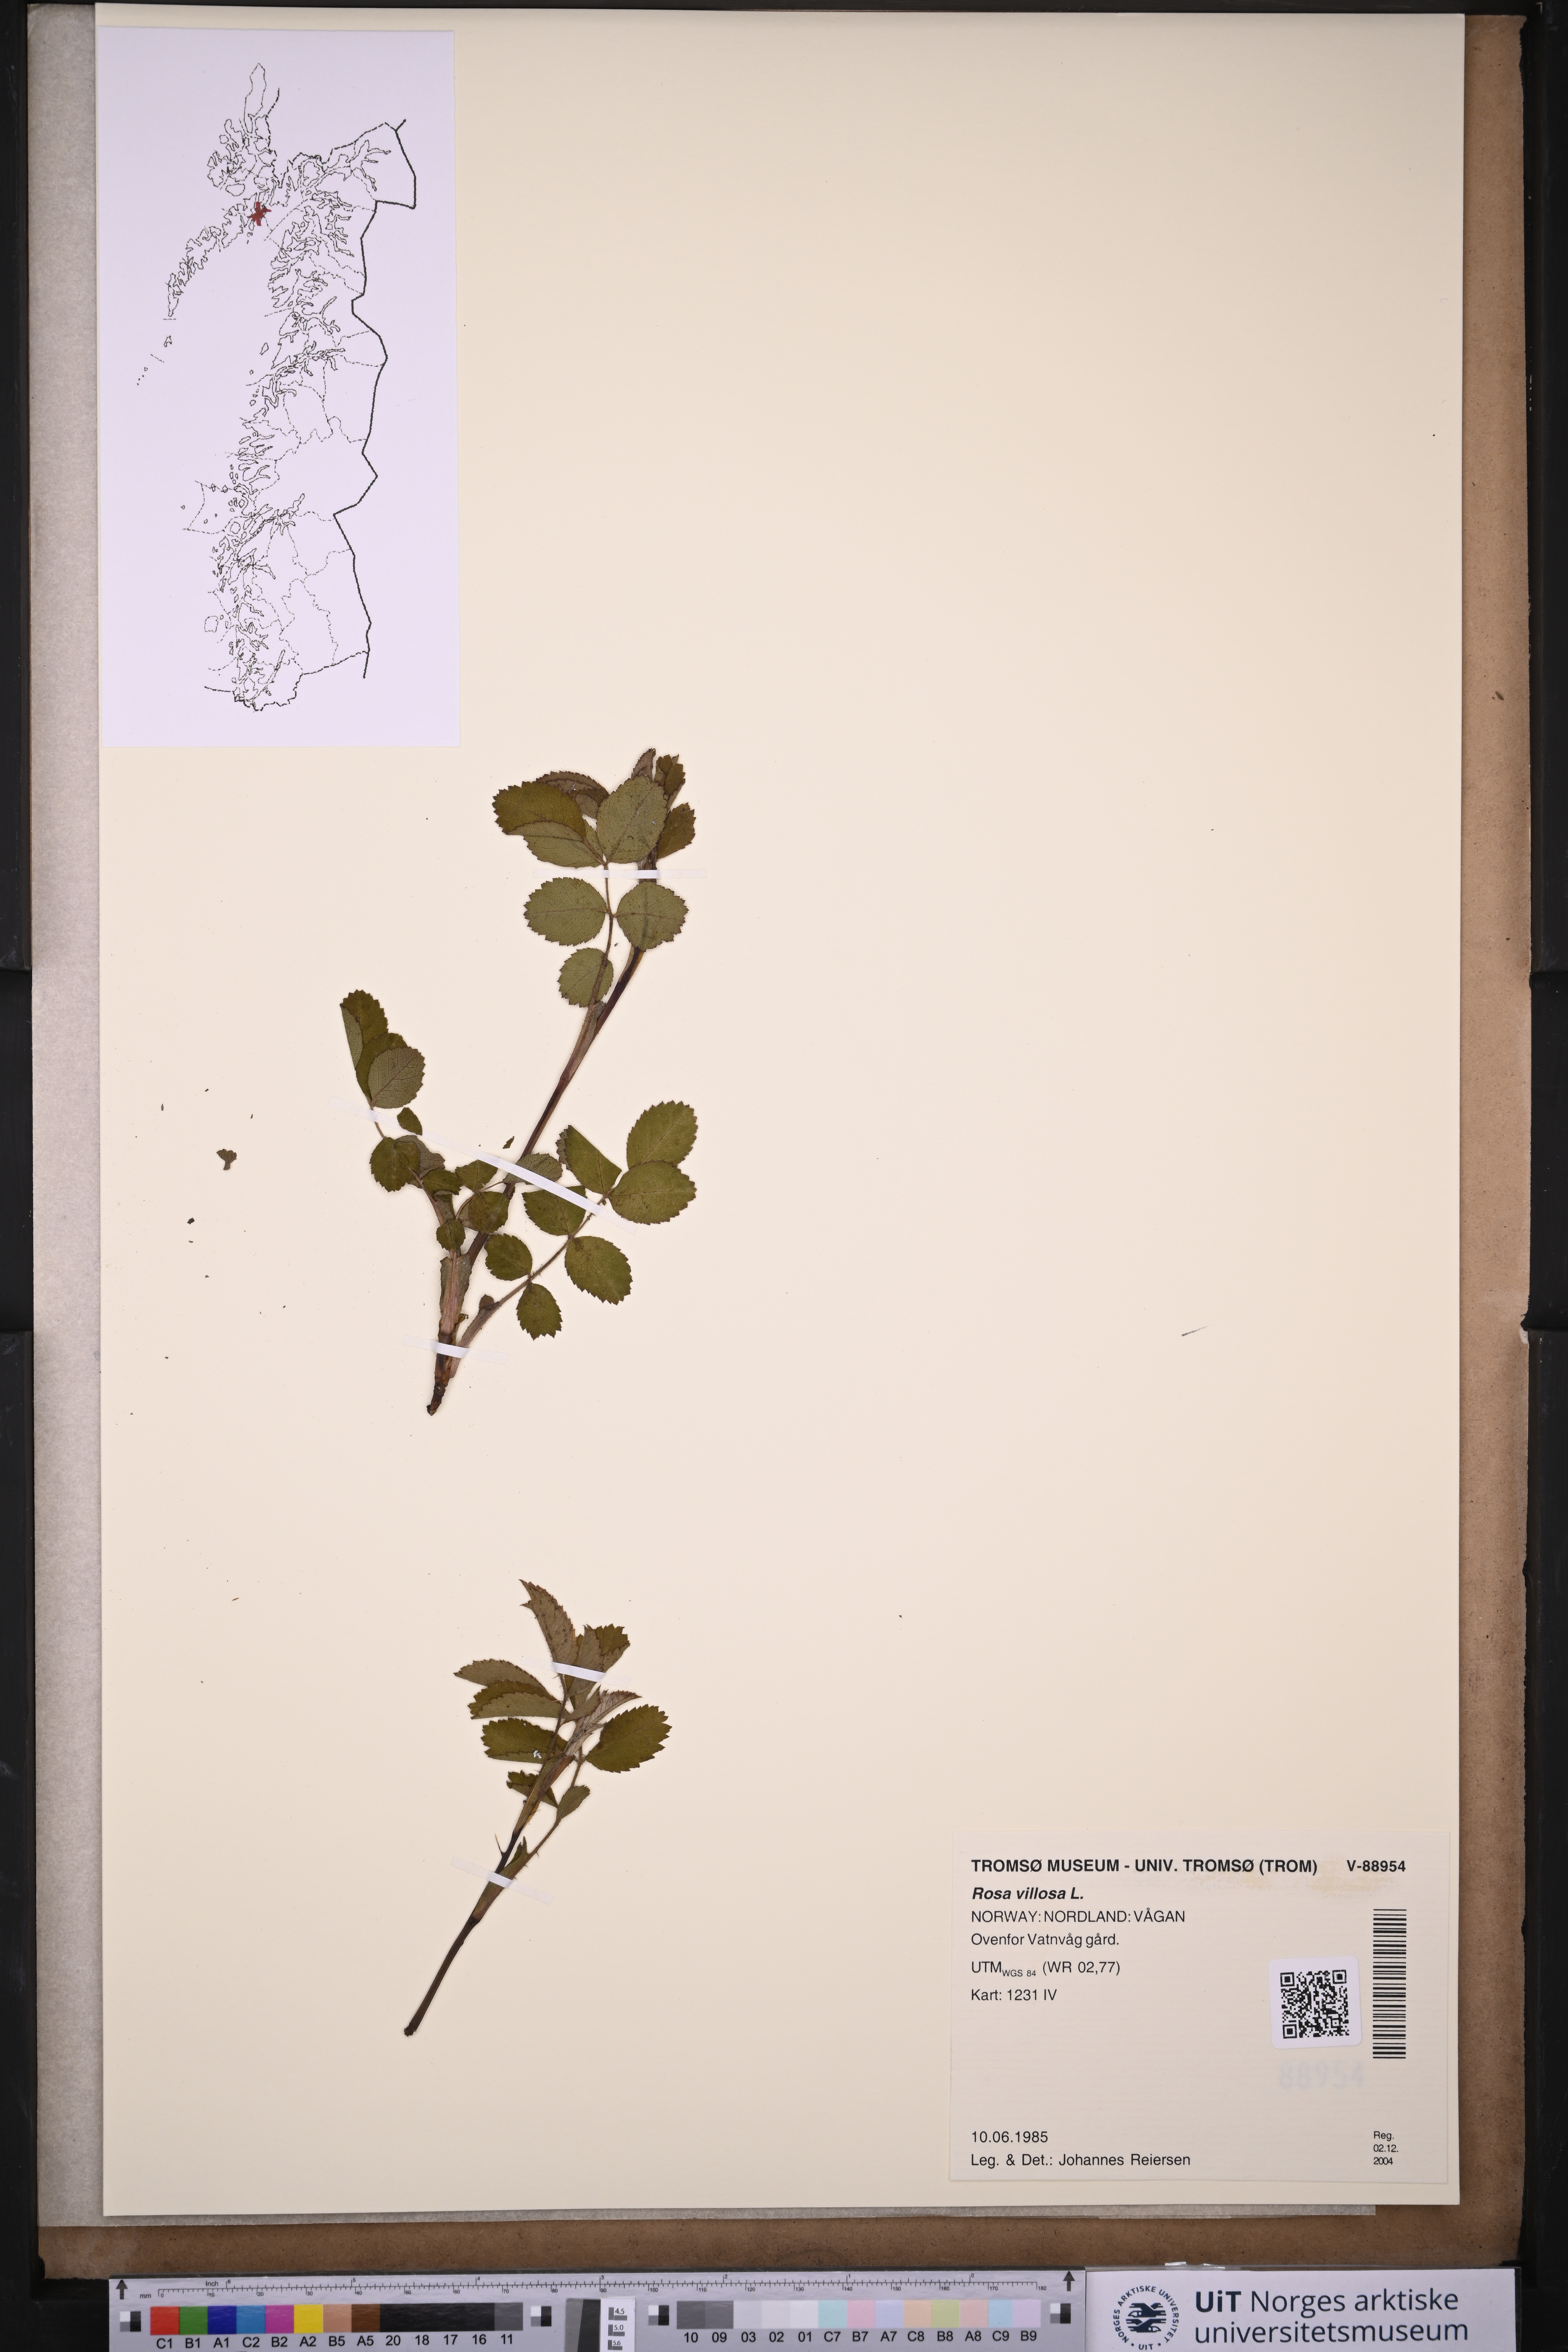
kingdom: Plantae
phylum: Tracheophyta
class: Magnoliopsida
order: Rosales
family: Rosaceae
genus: Rosa
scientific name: Rosa villosa
